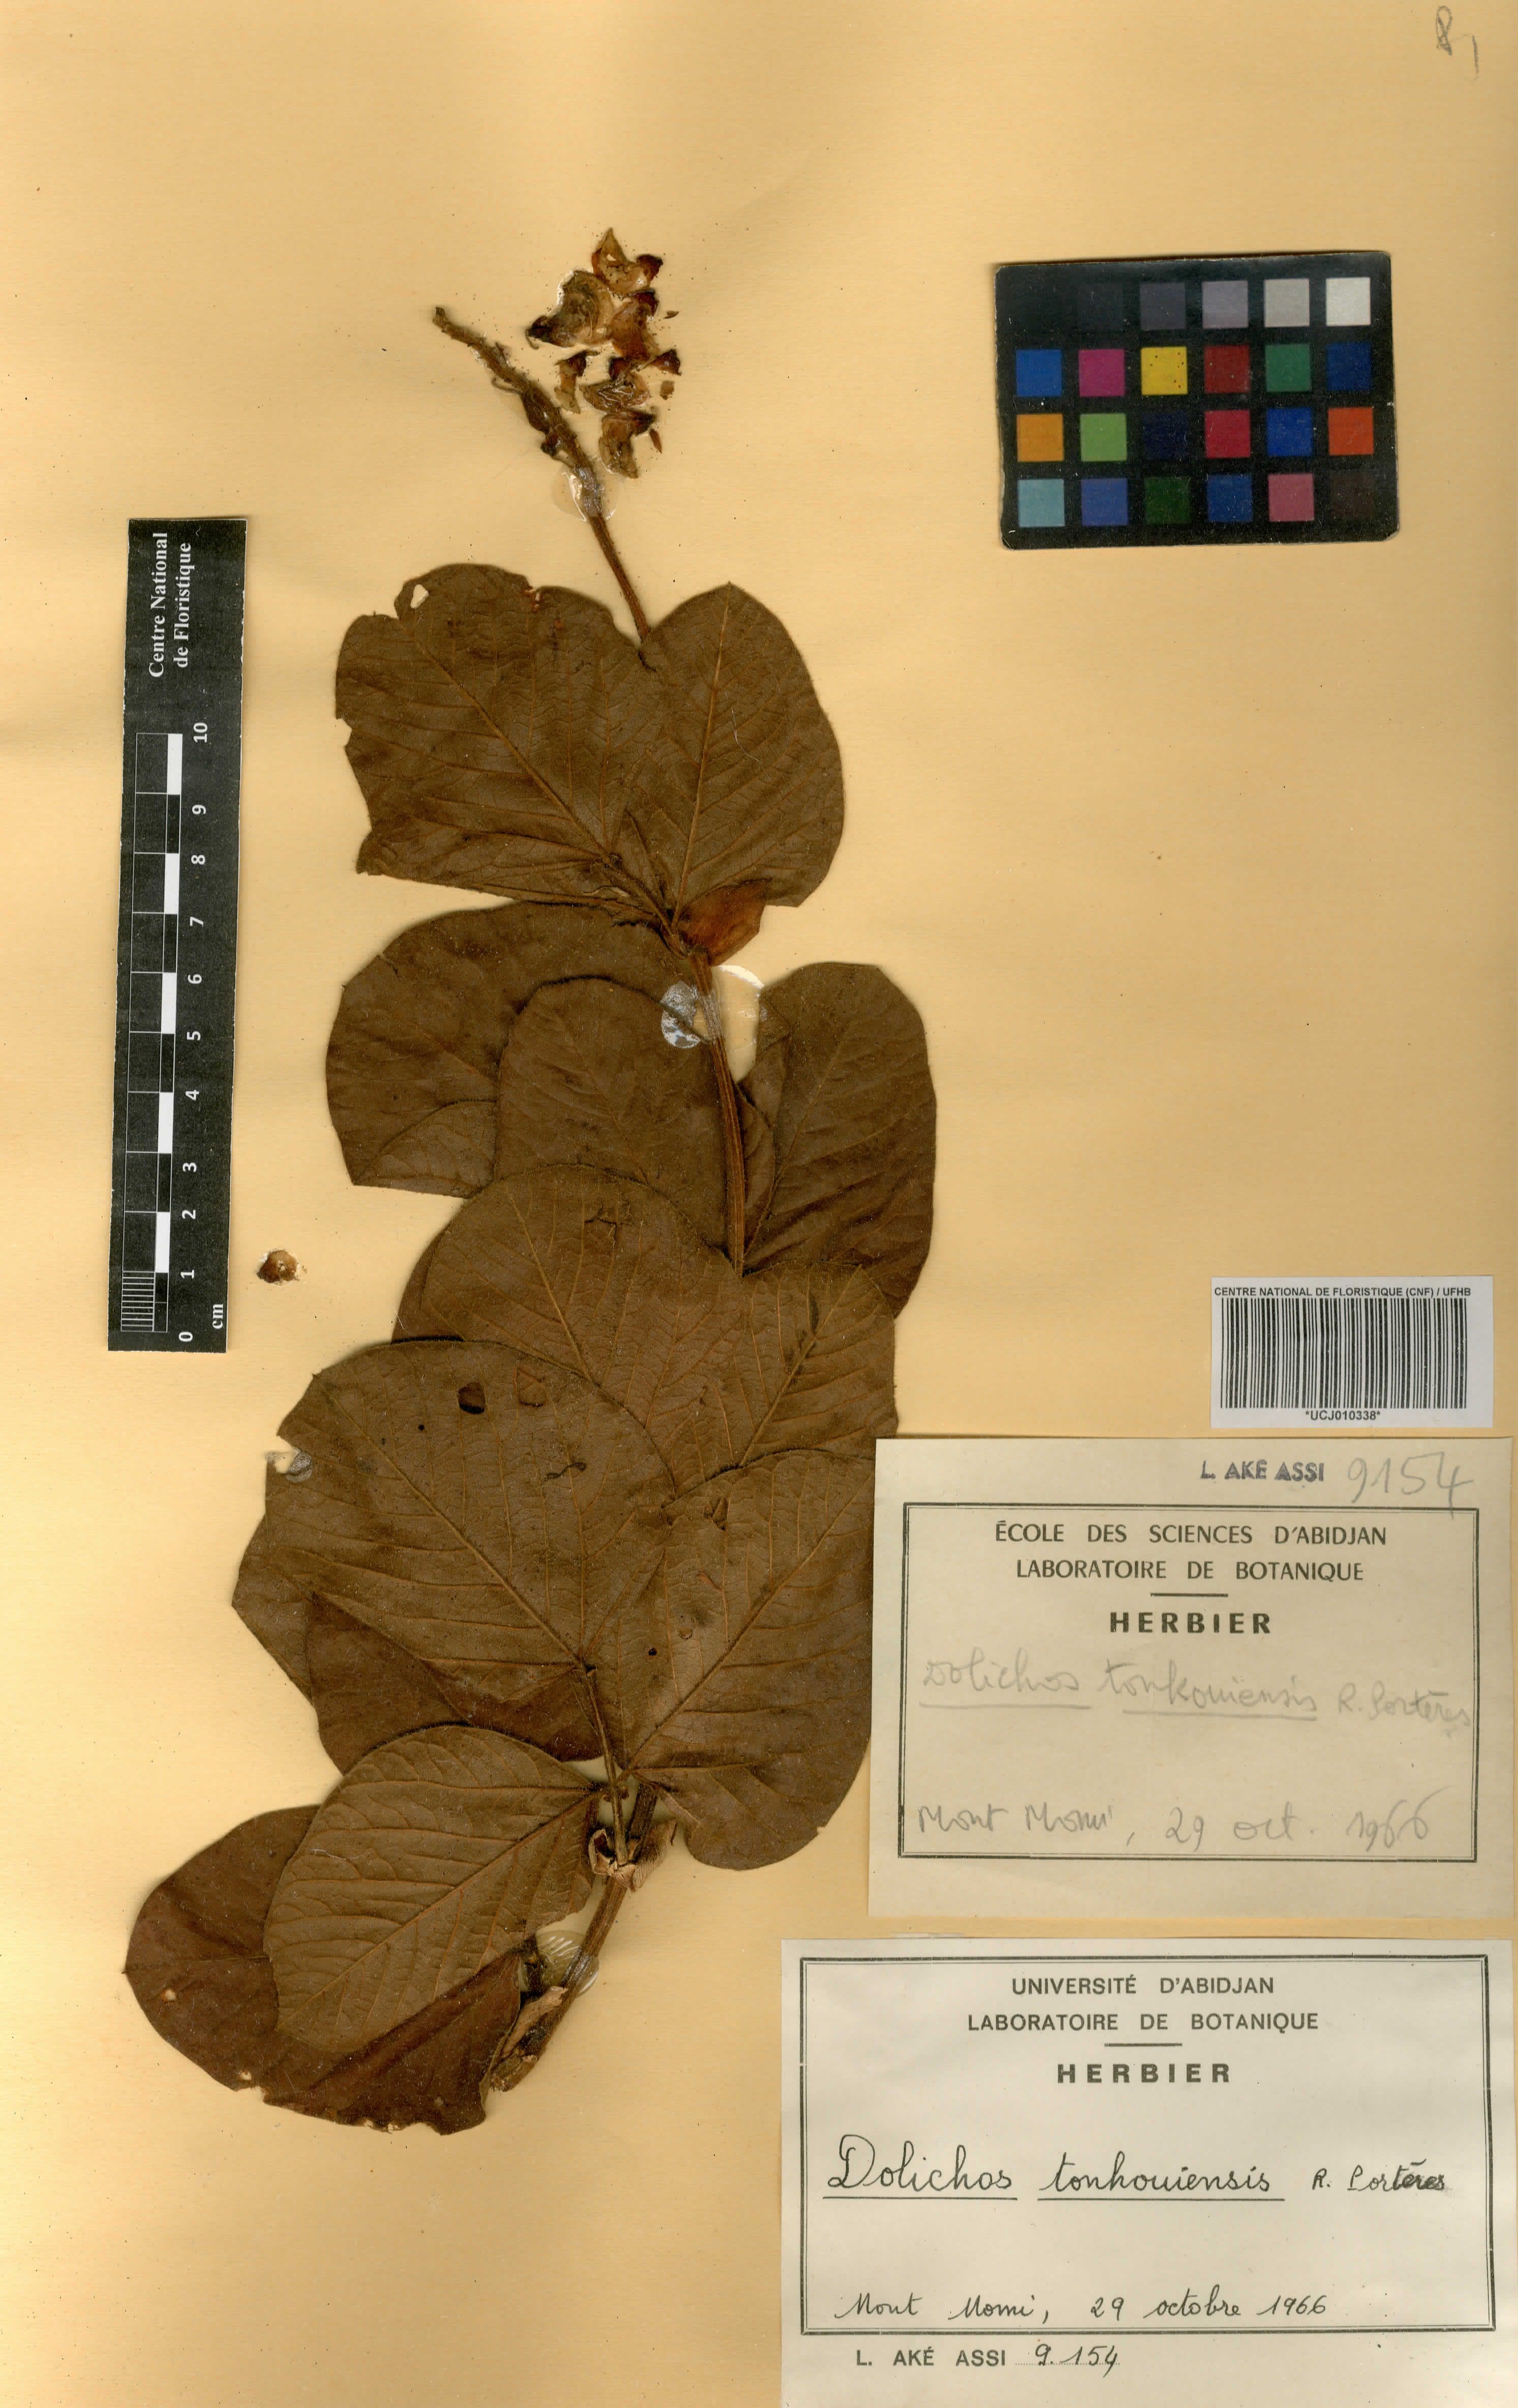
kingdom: Plantae
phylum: Tracheophyta
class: Magnoliopsida
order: Fabales
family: Fabaceae
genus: Dolichos
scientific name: Dolichos tonkouiensis
